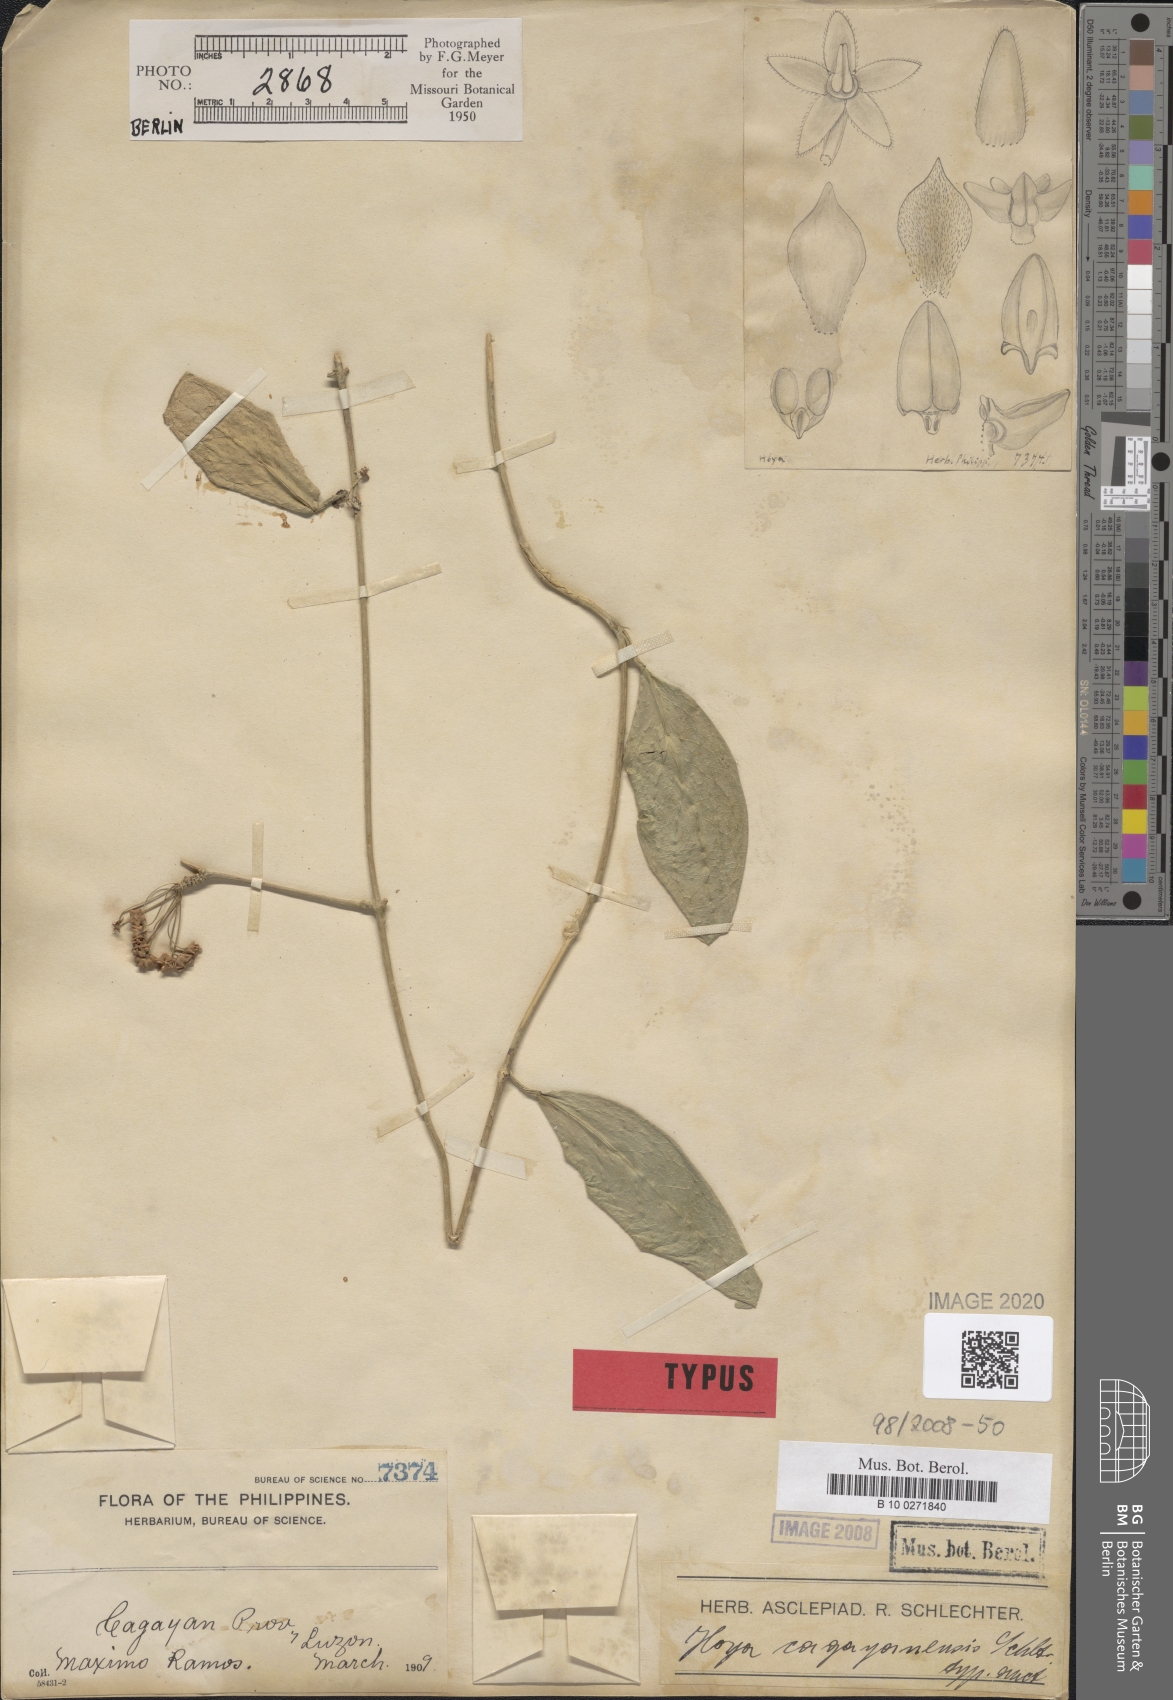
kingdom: Plantae
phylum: Tracheophyta
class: Magnoliopsida
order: Gentianales
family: Apocynaceae
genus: Hoya
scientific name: Hoya cagayanensis
